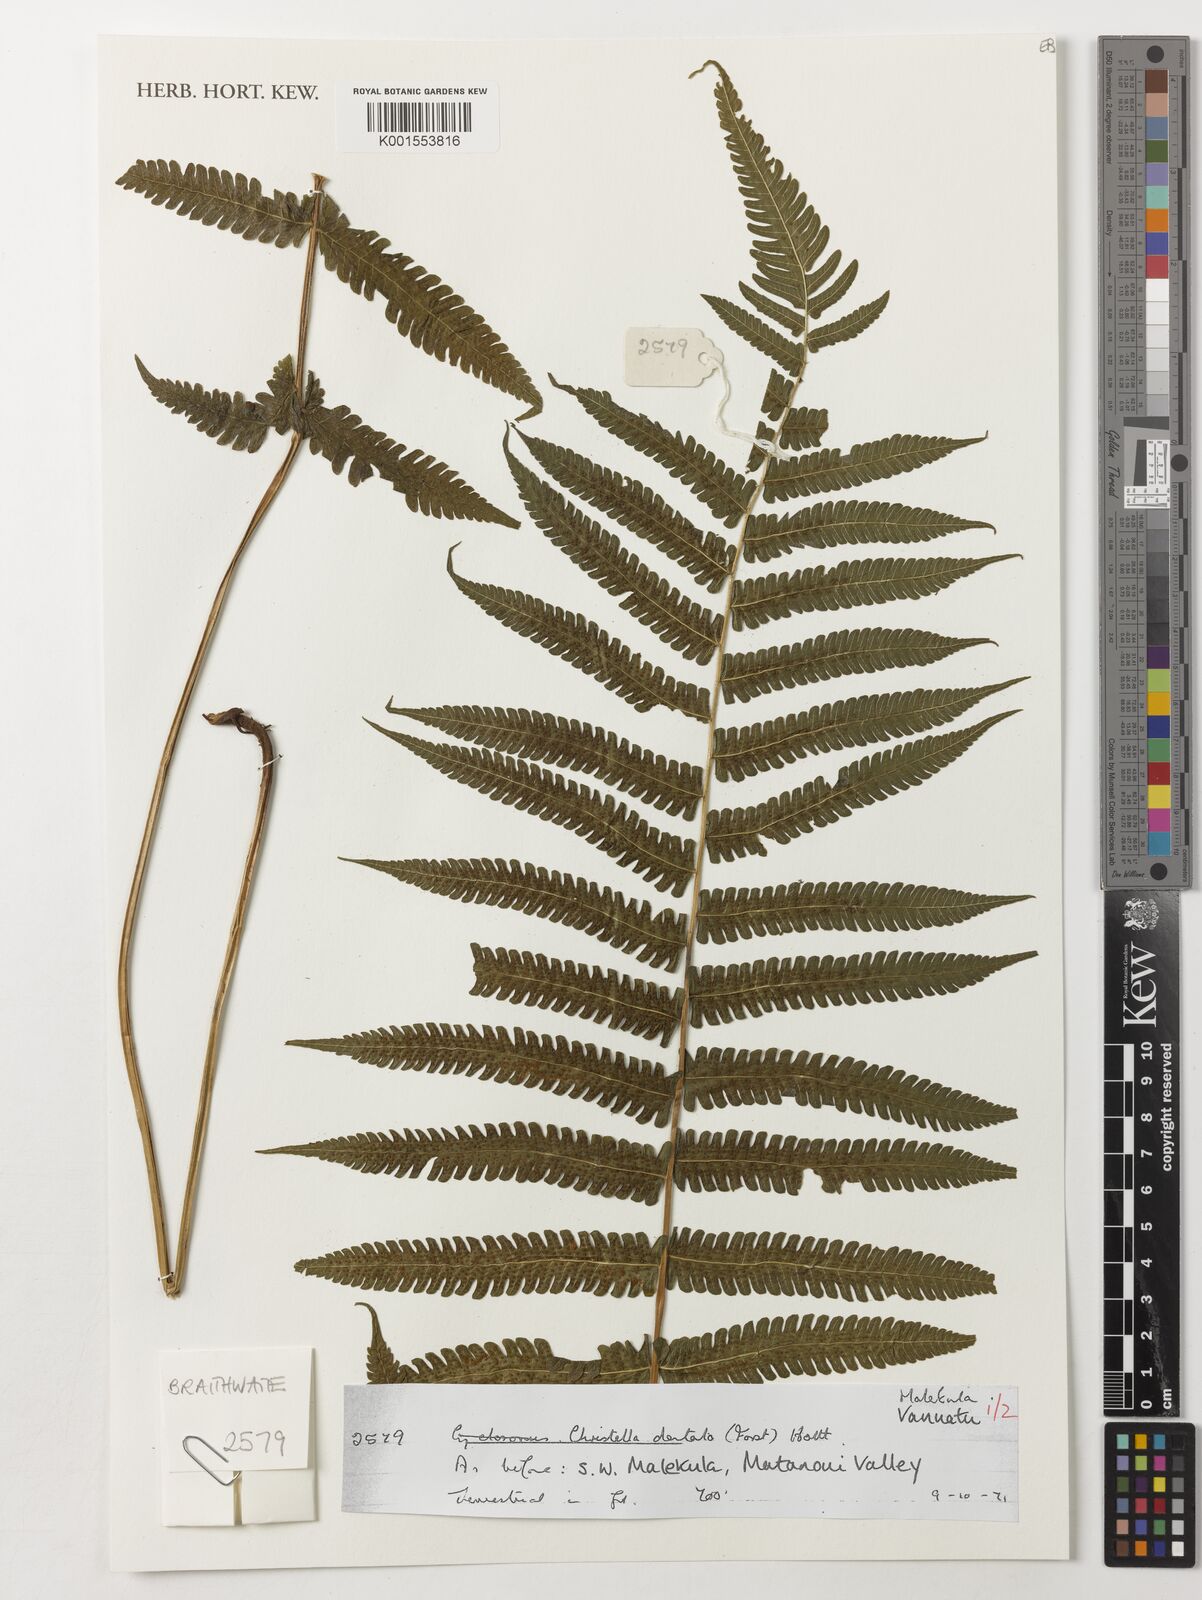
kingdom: Plantae
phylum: Tracheophyta
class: Polypodiopsida
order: Polypodiales
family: Thelypteridaceae
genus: Christella
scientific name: Christella dentata
